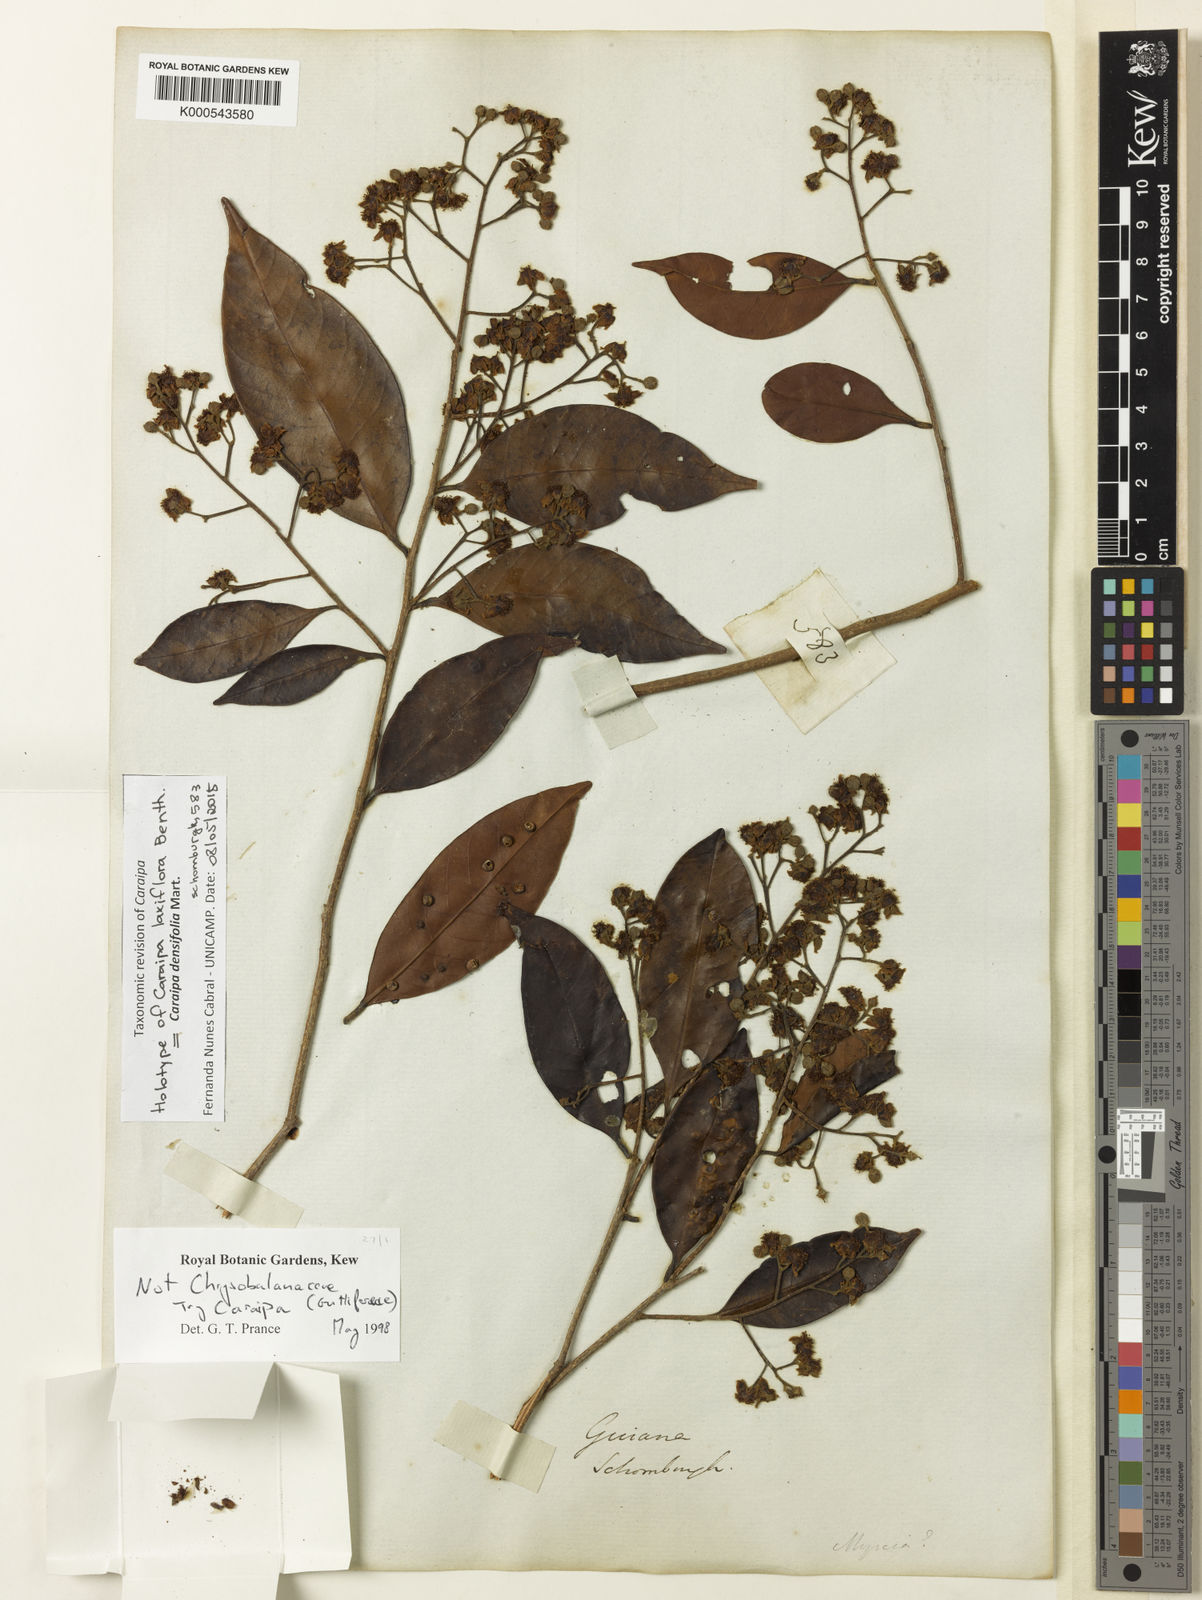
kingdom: Plantae
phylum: Tracheophyta
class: Magnoliopsida
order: Malpighiales
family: Calophyllaceae
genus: Caraipa
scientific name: Caraipa densifolia
